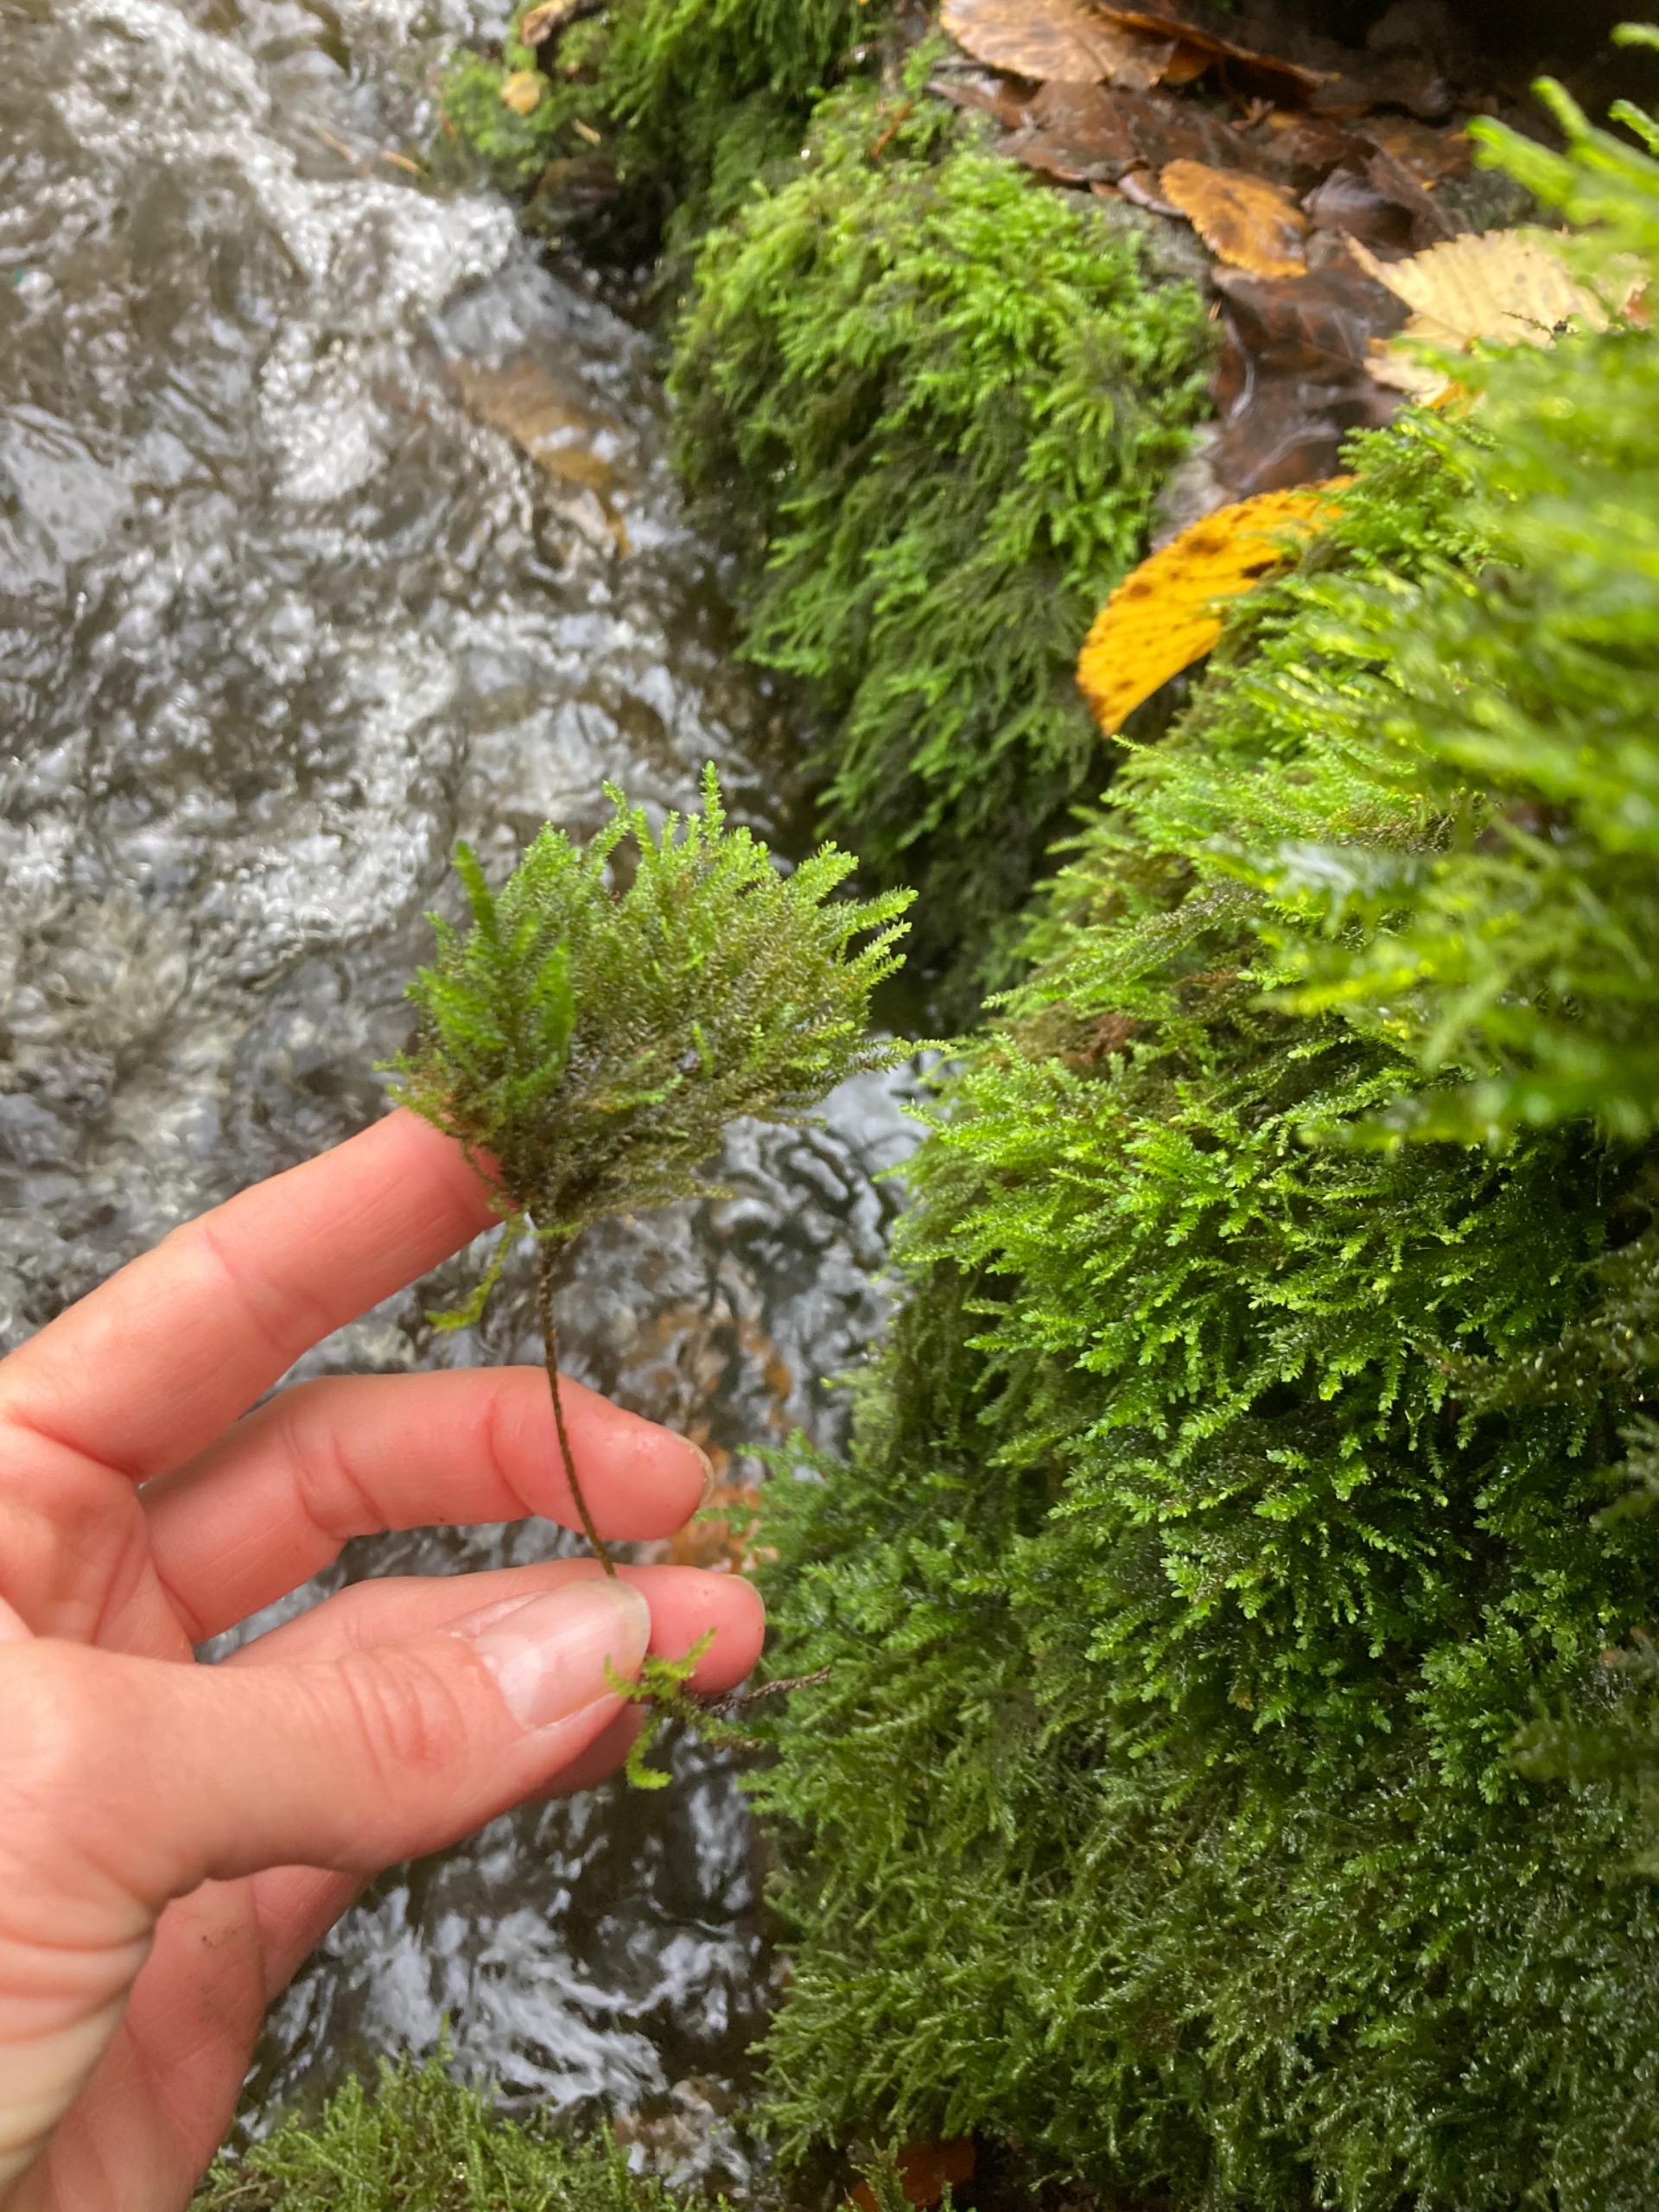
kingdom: Plantae
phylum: Bryophyta
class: Bryopsida
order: Hypnales
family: Neckeraceae
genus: Thamnobryum
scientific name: Thamnobryum alopecurum
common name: Mat bækkost
